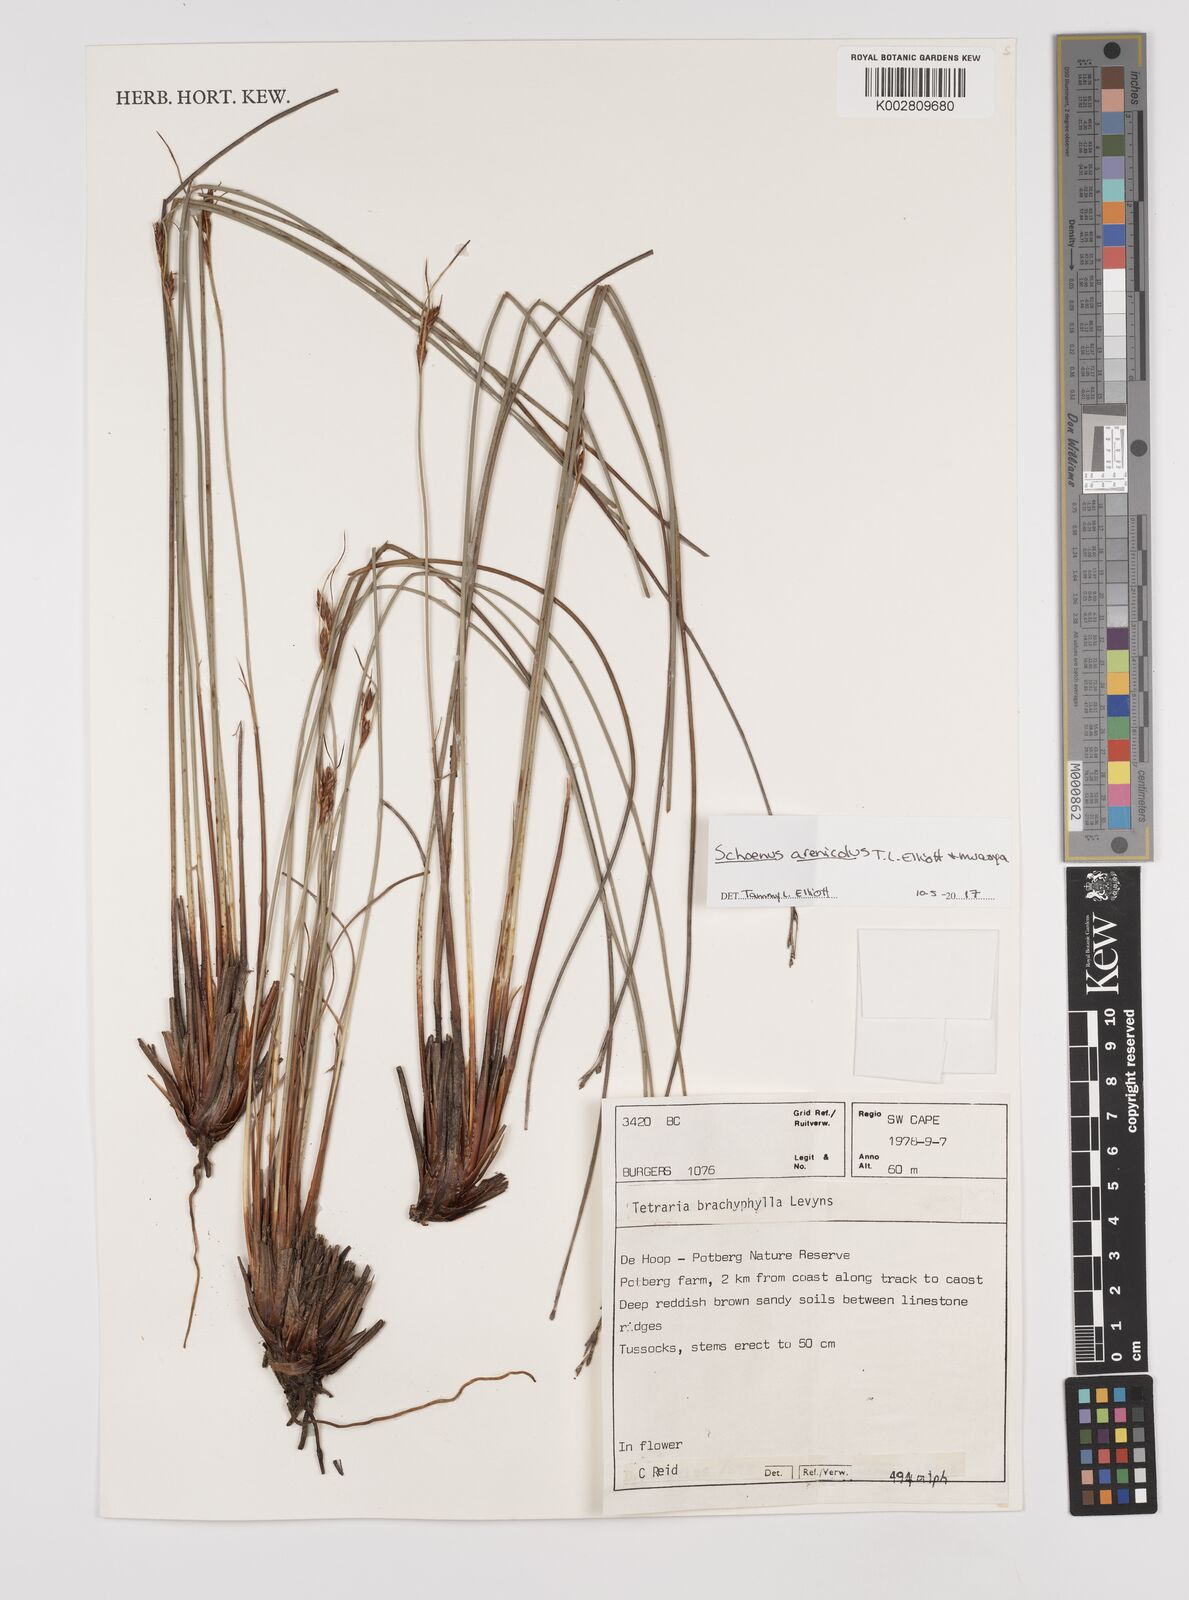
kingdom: Plantae
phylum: Tracheophyta
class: Liliopsida
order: Poales
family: Cyperaceae
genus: Schoenus
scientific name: Schoenus arenicola
